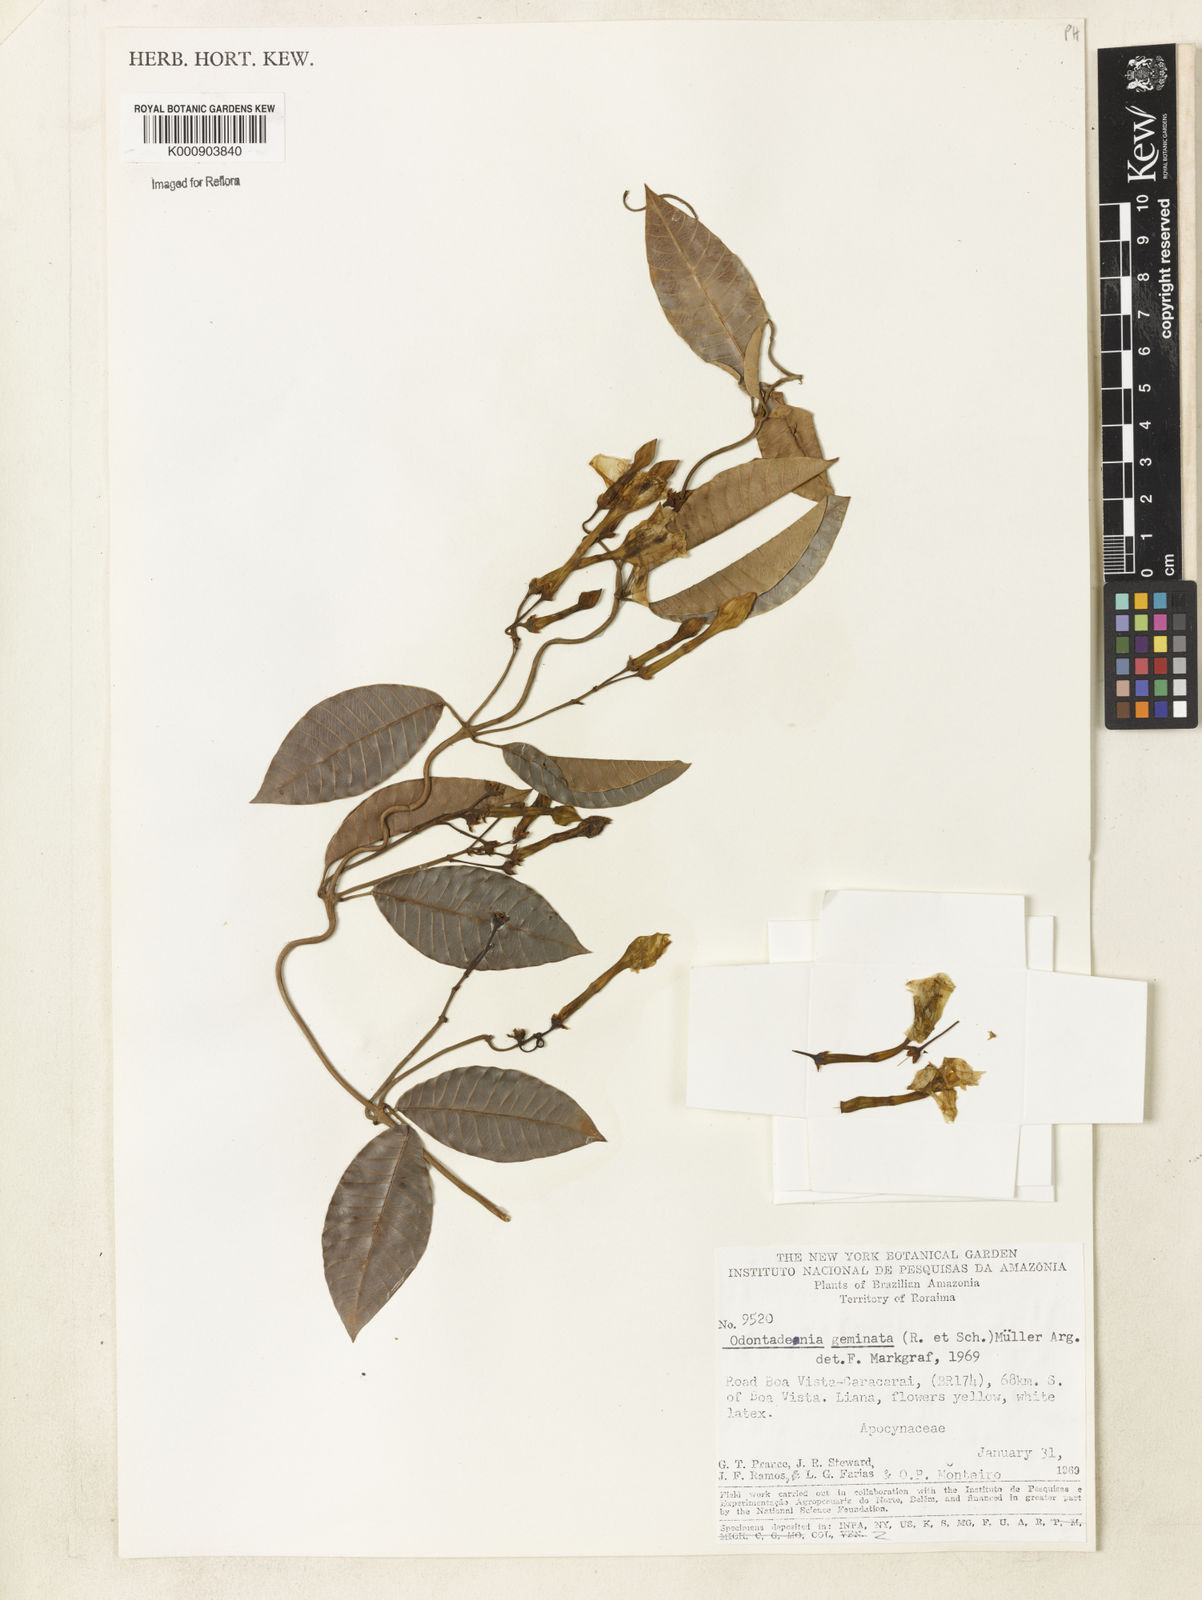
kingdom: Plantae
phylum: Tracheophyta
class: Magnoliopsida
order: Gentianales
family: Apocynaceae
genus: Odontadenia
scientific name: Odontadenia
